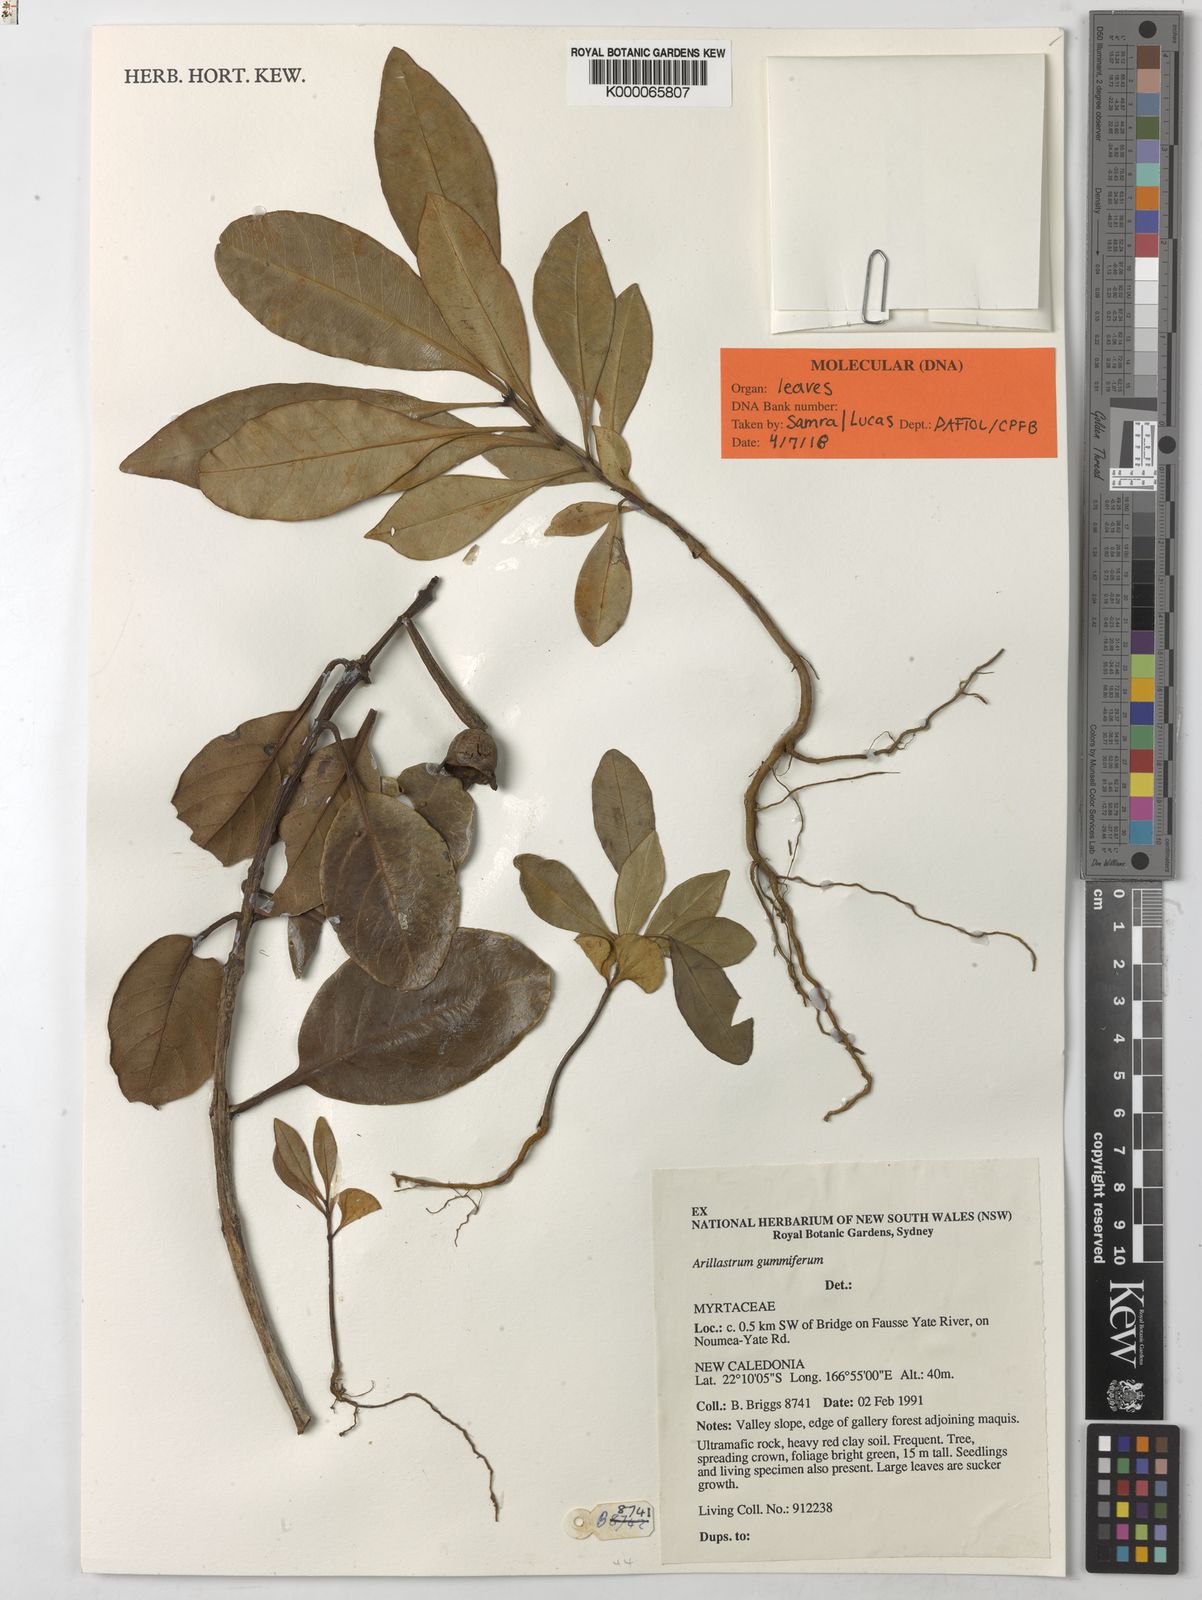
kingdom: Plantae
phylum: Tracheophyta
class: Magnoliopsida
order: Myrtales
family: Myrtaceae
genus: Arillastrum
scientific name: Arillastrum gummiferum
